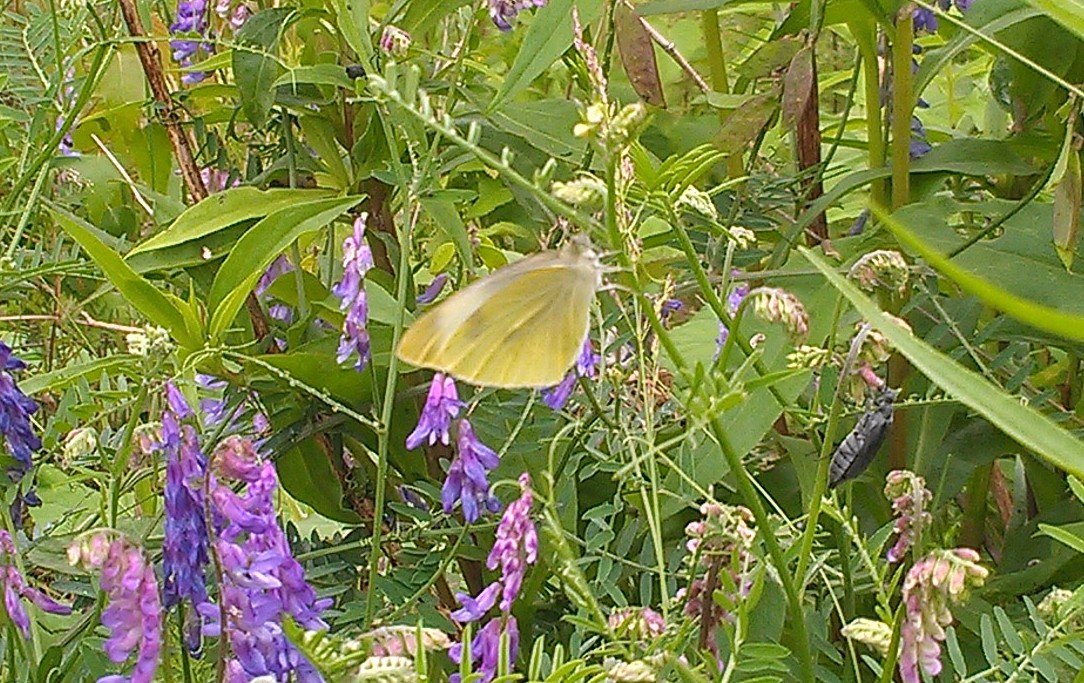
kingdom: Animalia
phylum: Arthropoda
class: Insecta
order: Lepidoptera
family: Pieridae
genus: Pieris
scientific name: Pieris rapae
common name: Cabbage White
